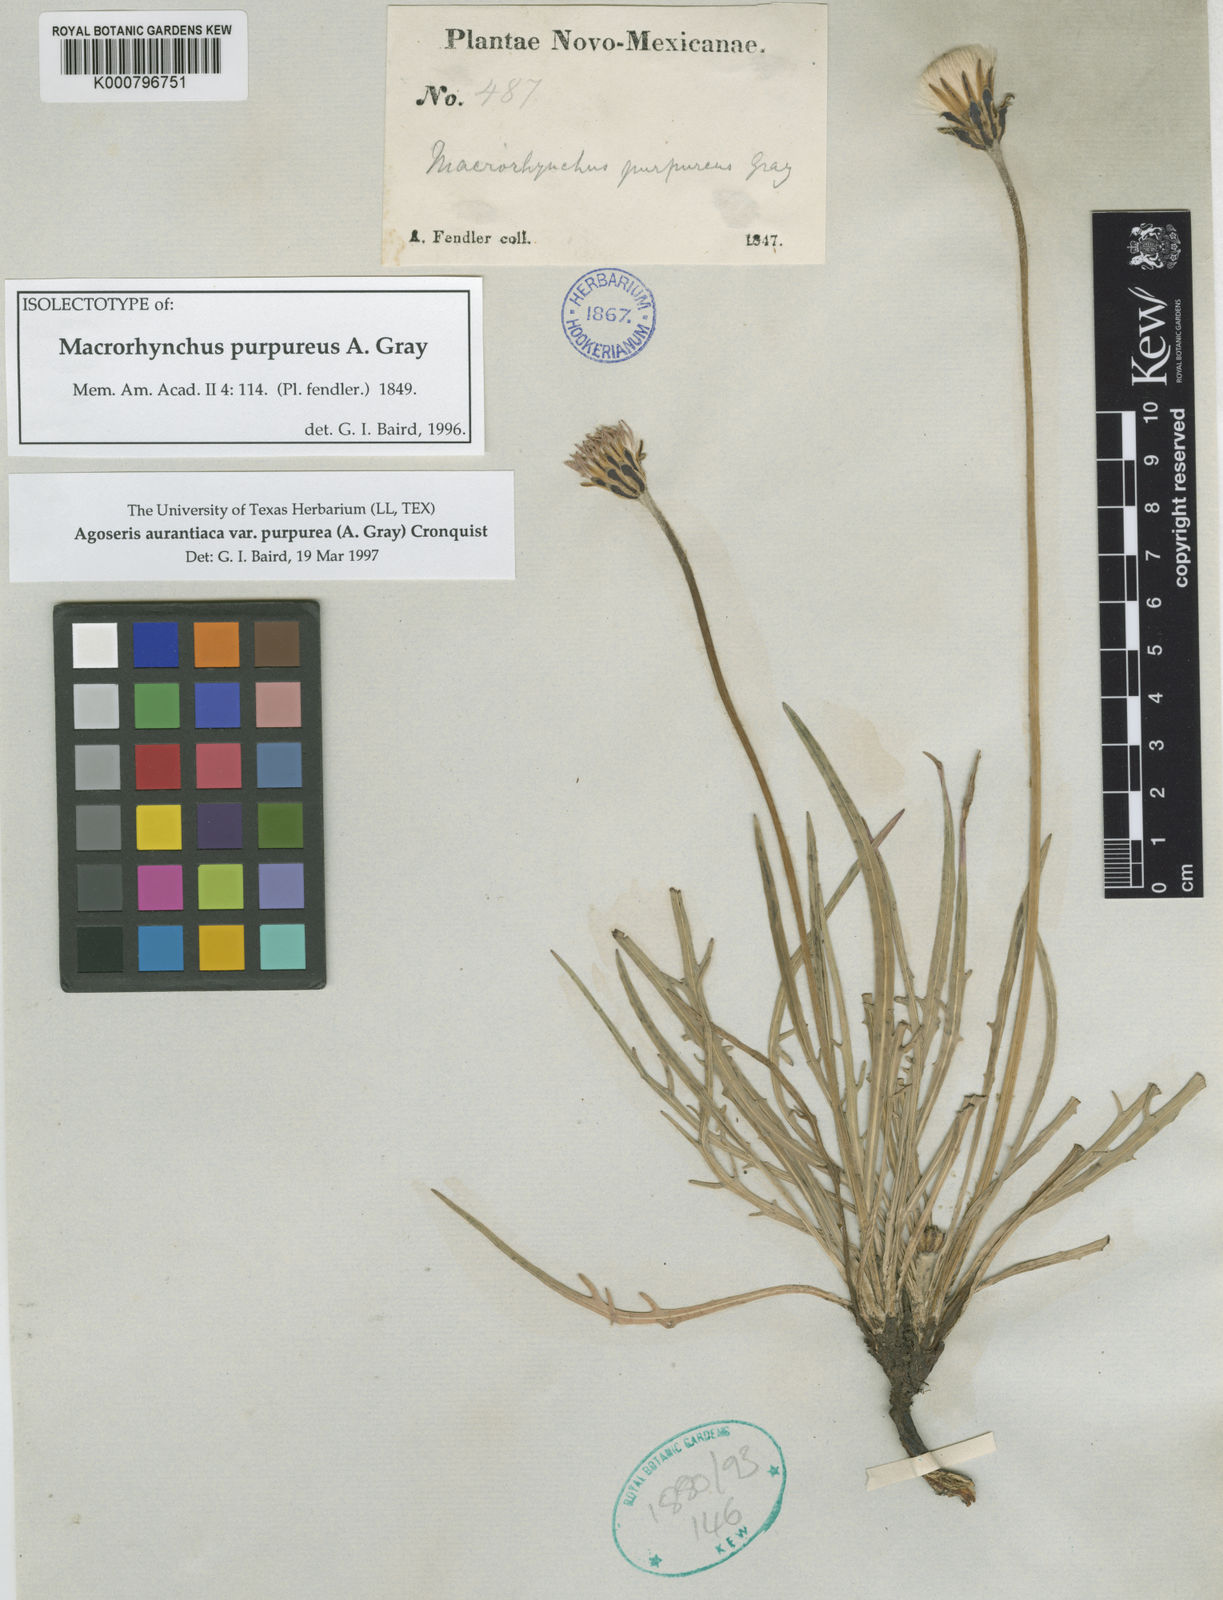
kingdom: Plantae
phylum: Tracheophyta
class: Magnoliopsida
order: Asterales
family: Asteraceae
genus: Agoseris
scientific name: Agoseris aurantiaca
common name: Mountain agoseris
